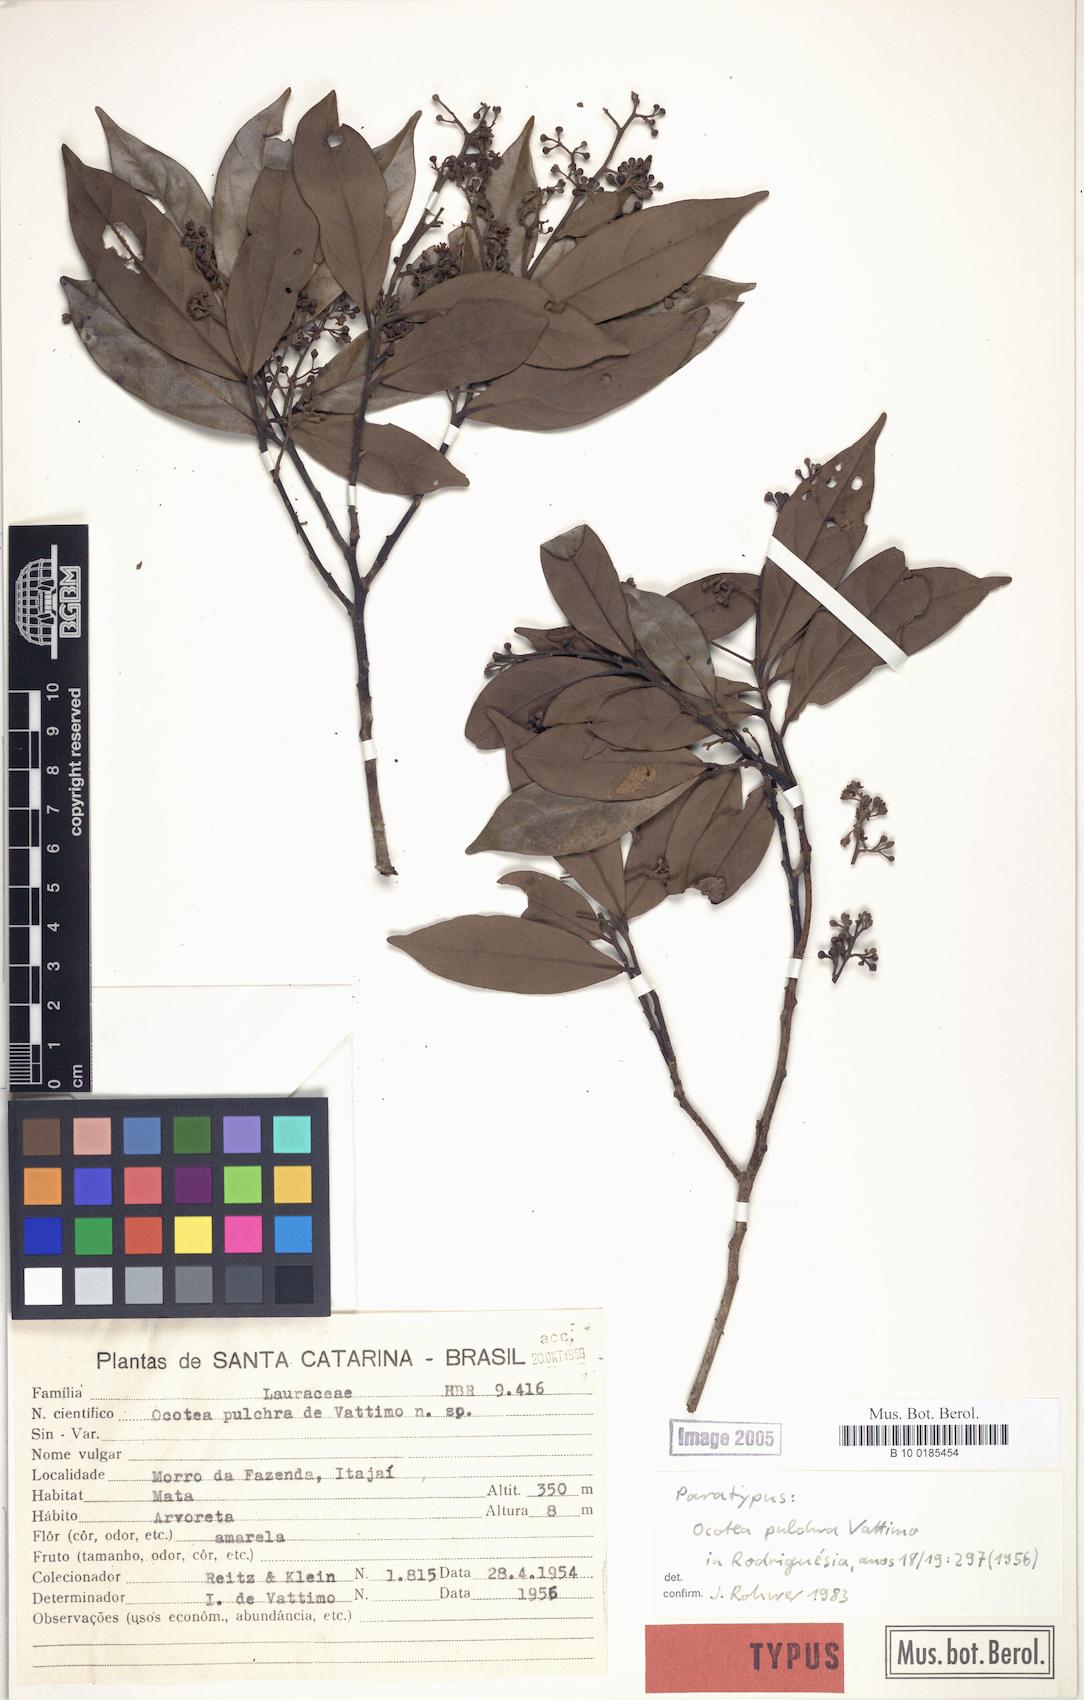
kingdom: Plantae
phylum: Tracheophyta
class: Magnoliopsida
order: Laurales
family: Lauraceae
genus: Ocotea
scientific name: Ocotea lancifolia
